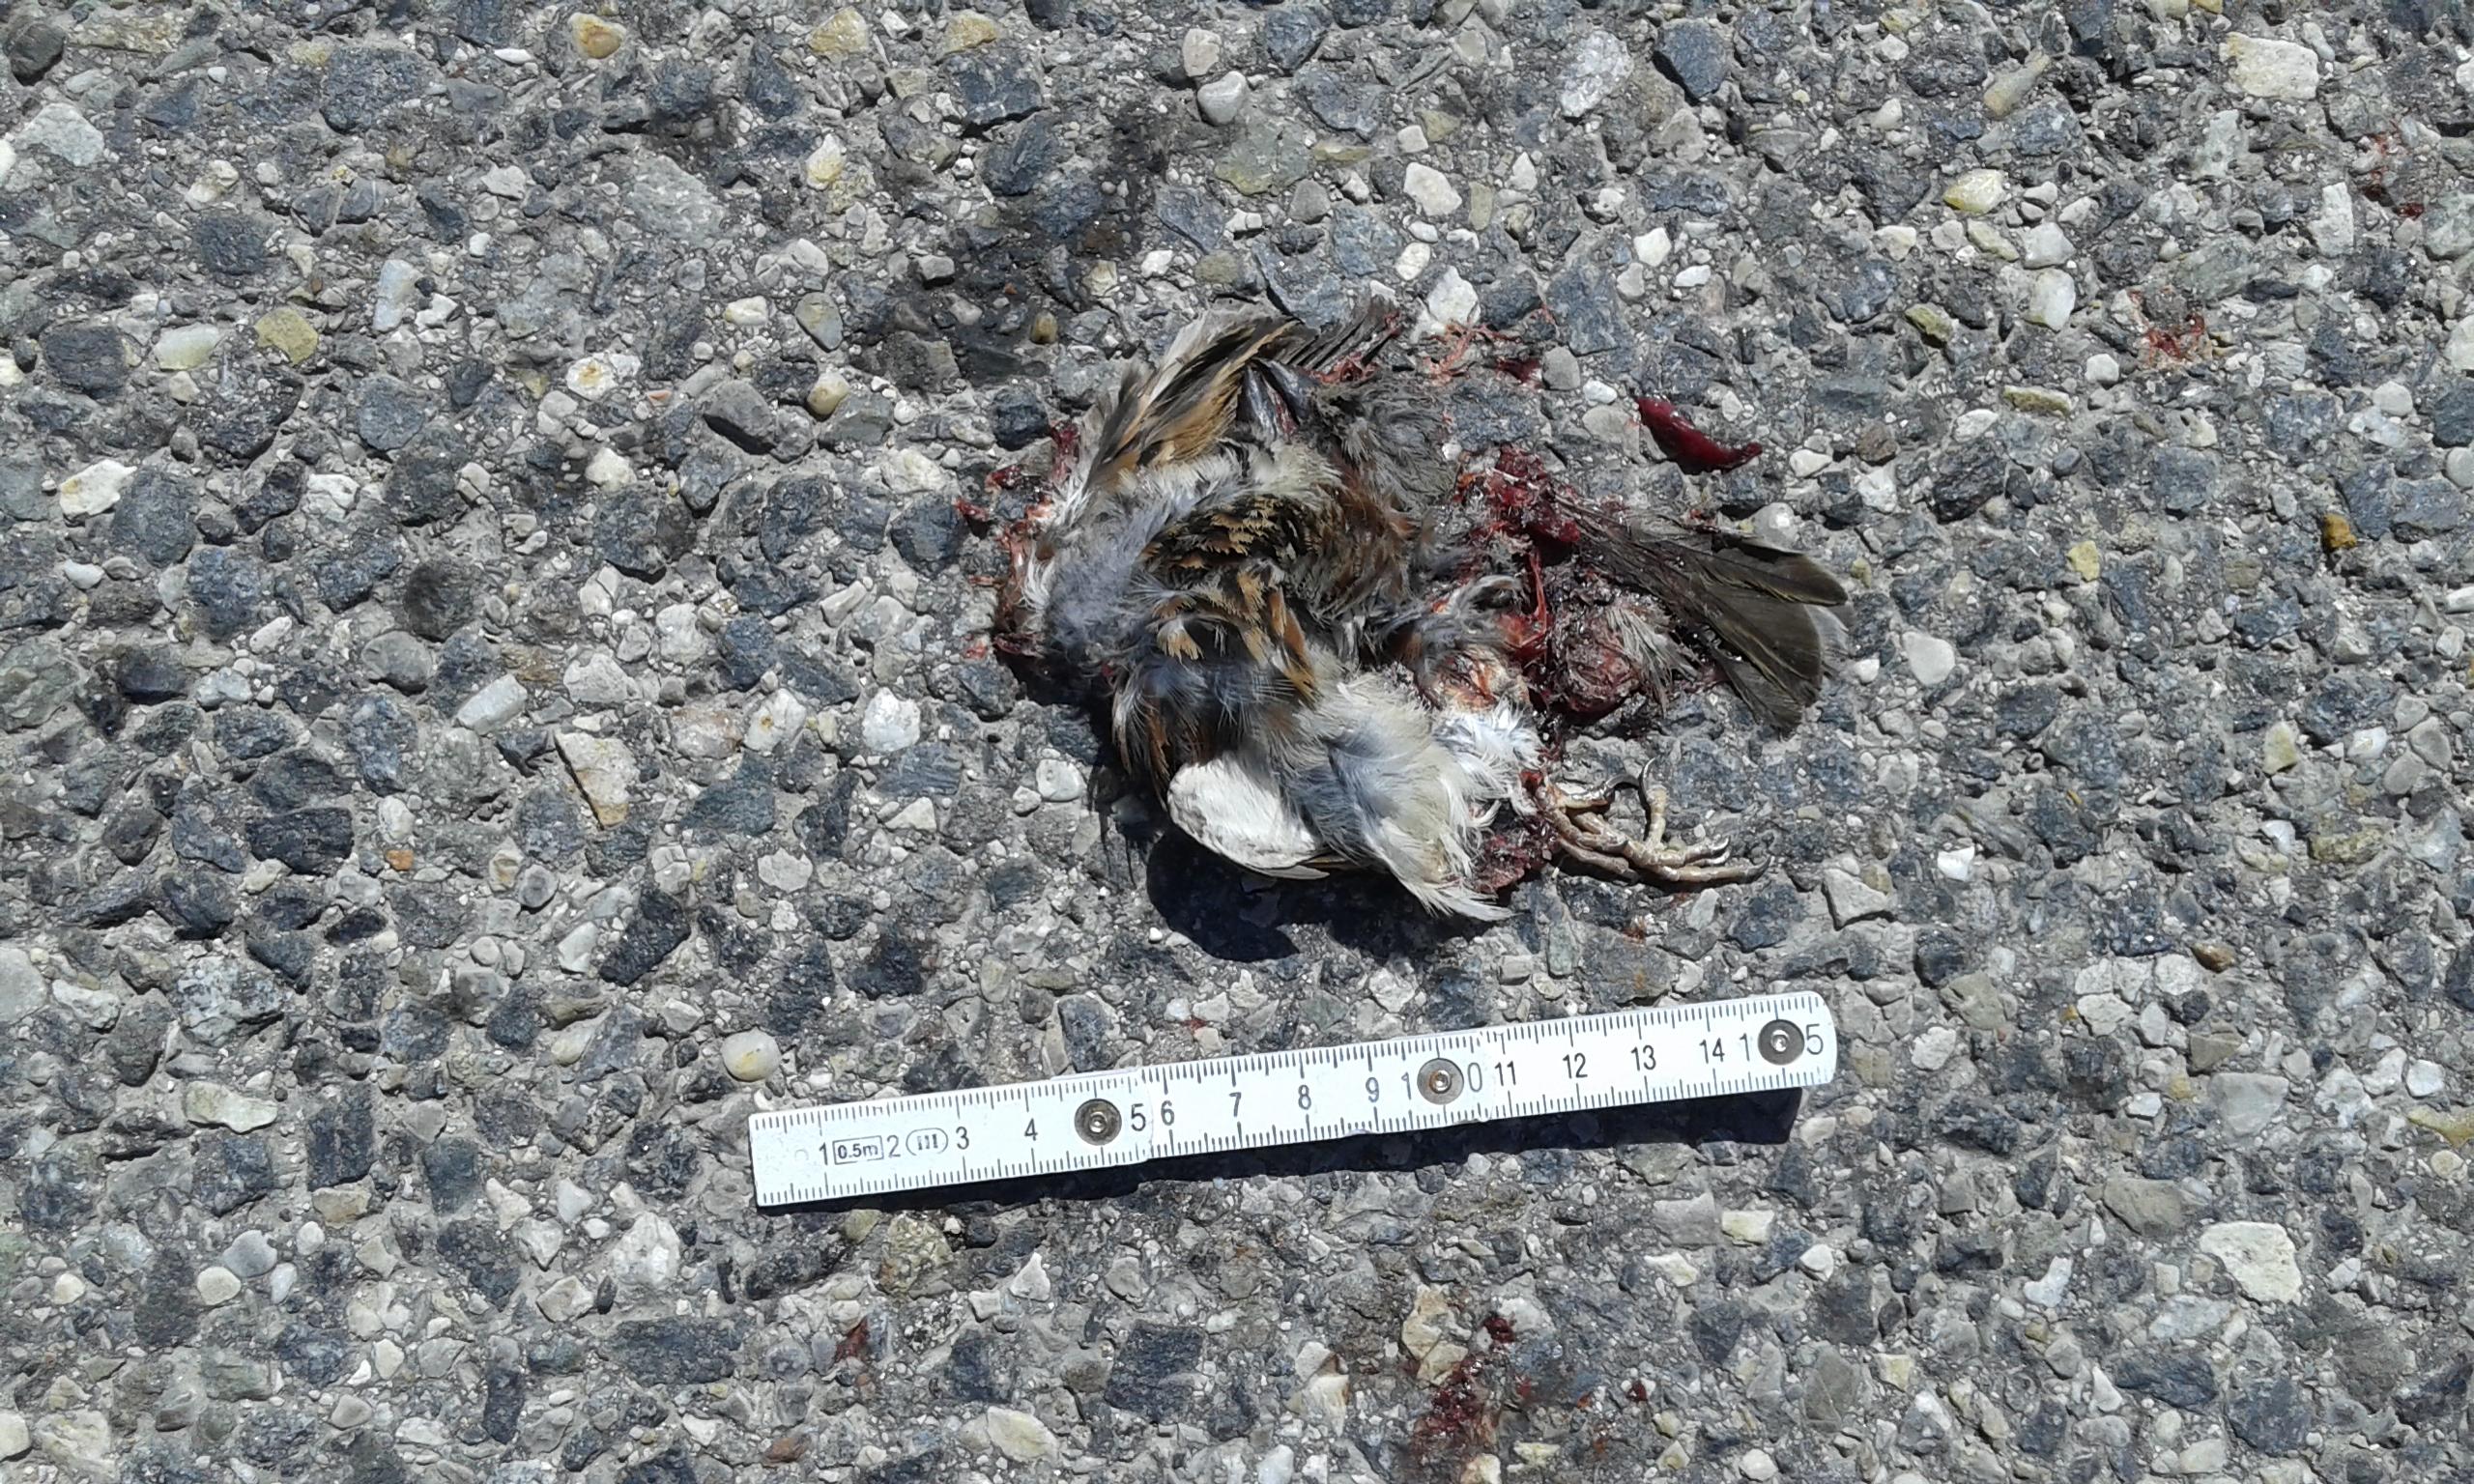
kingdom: Animalia
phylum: Chordata
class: Aves
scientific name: Aves
